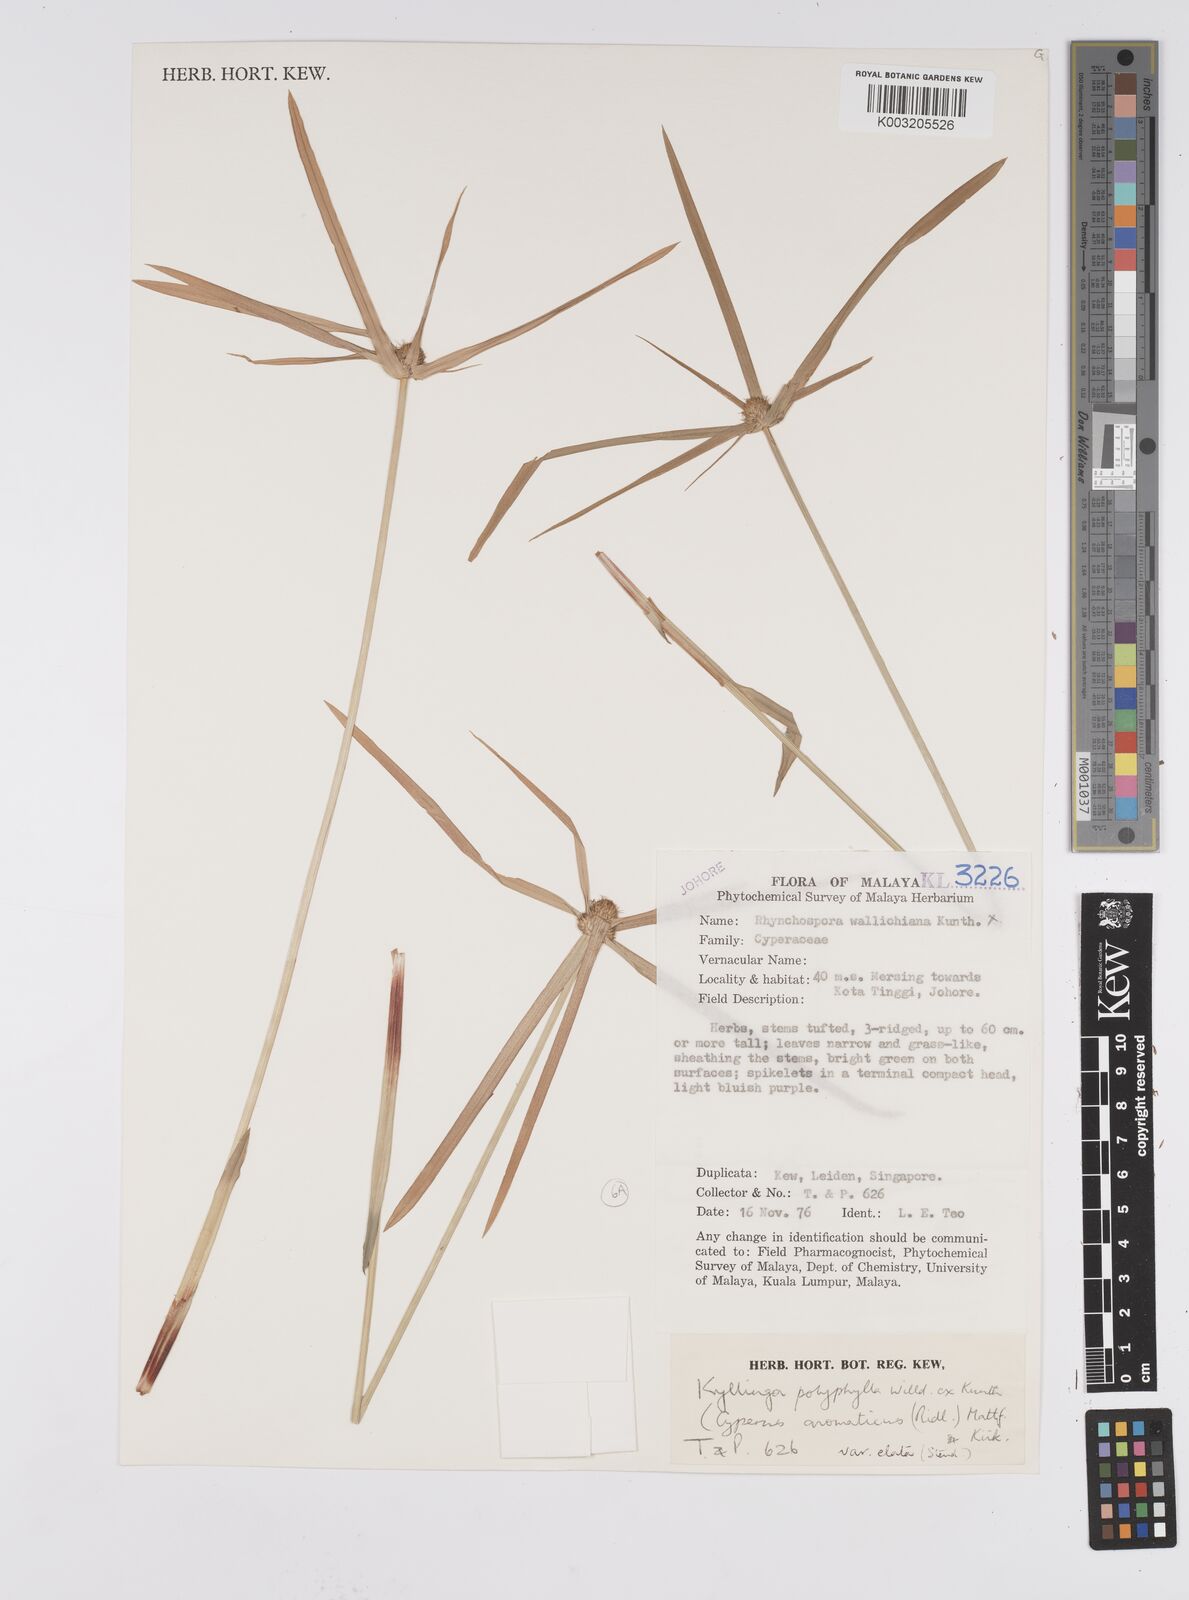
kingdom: Plantae
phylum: Tracheophyta
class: Liliopsida
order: Poales
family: Cyperaceae
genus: Cyperus
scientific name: Cyperus
